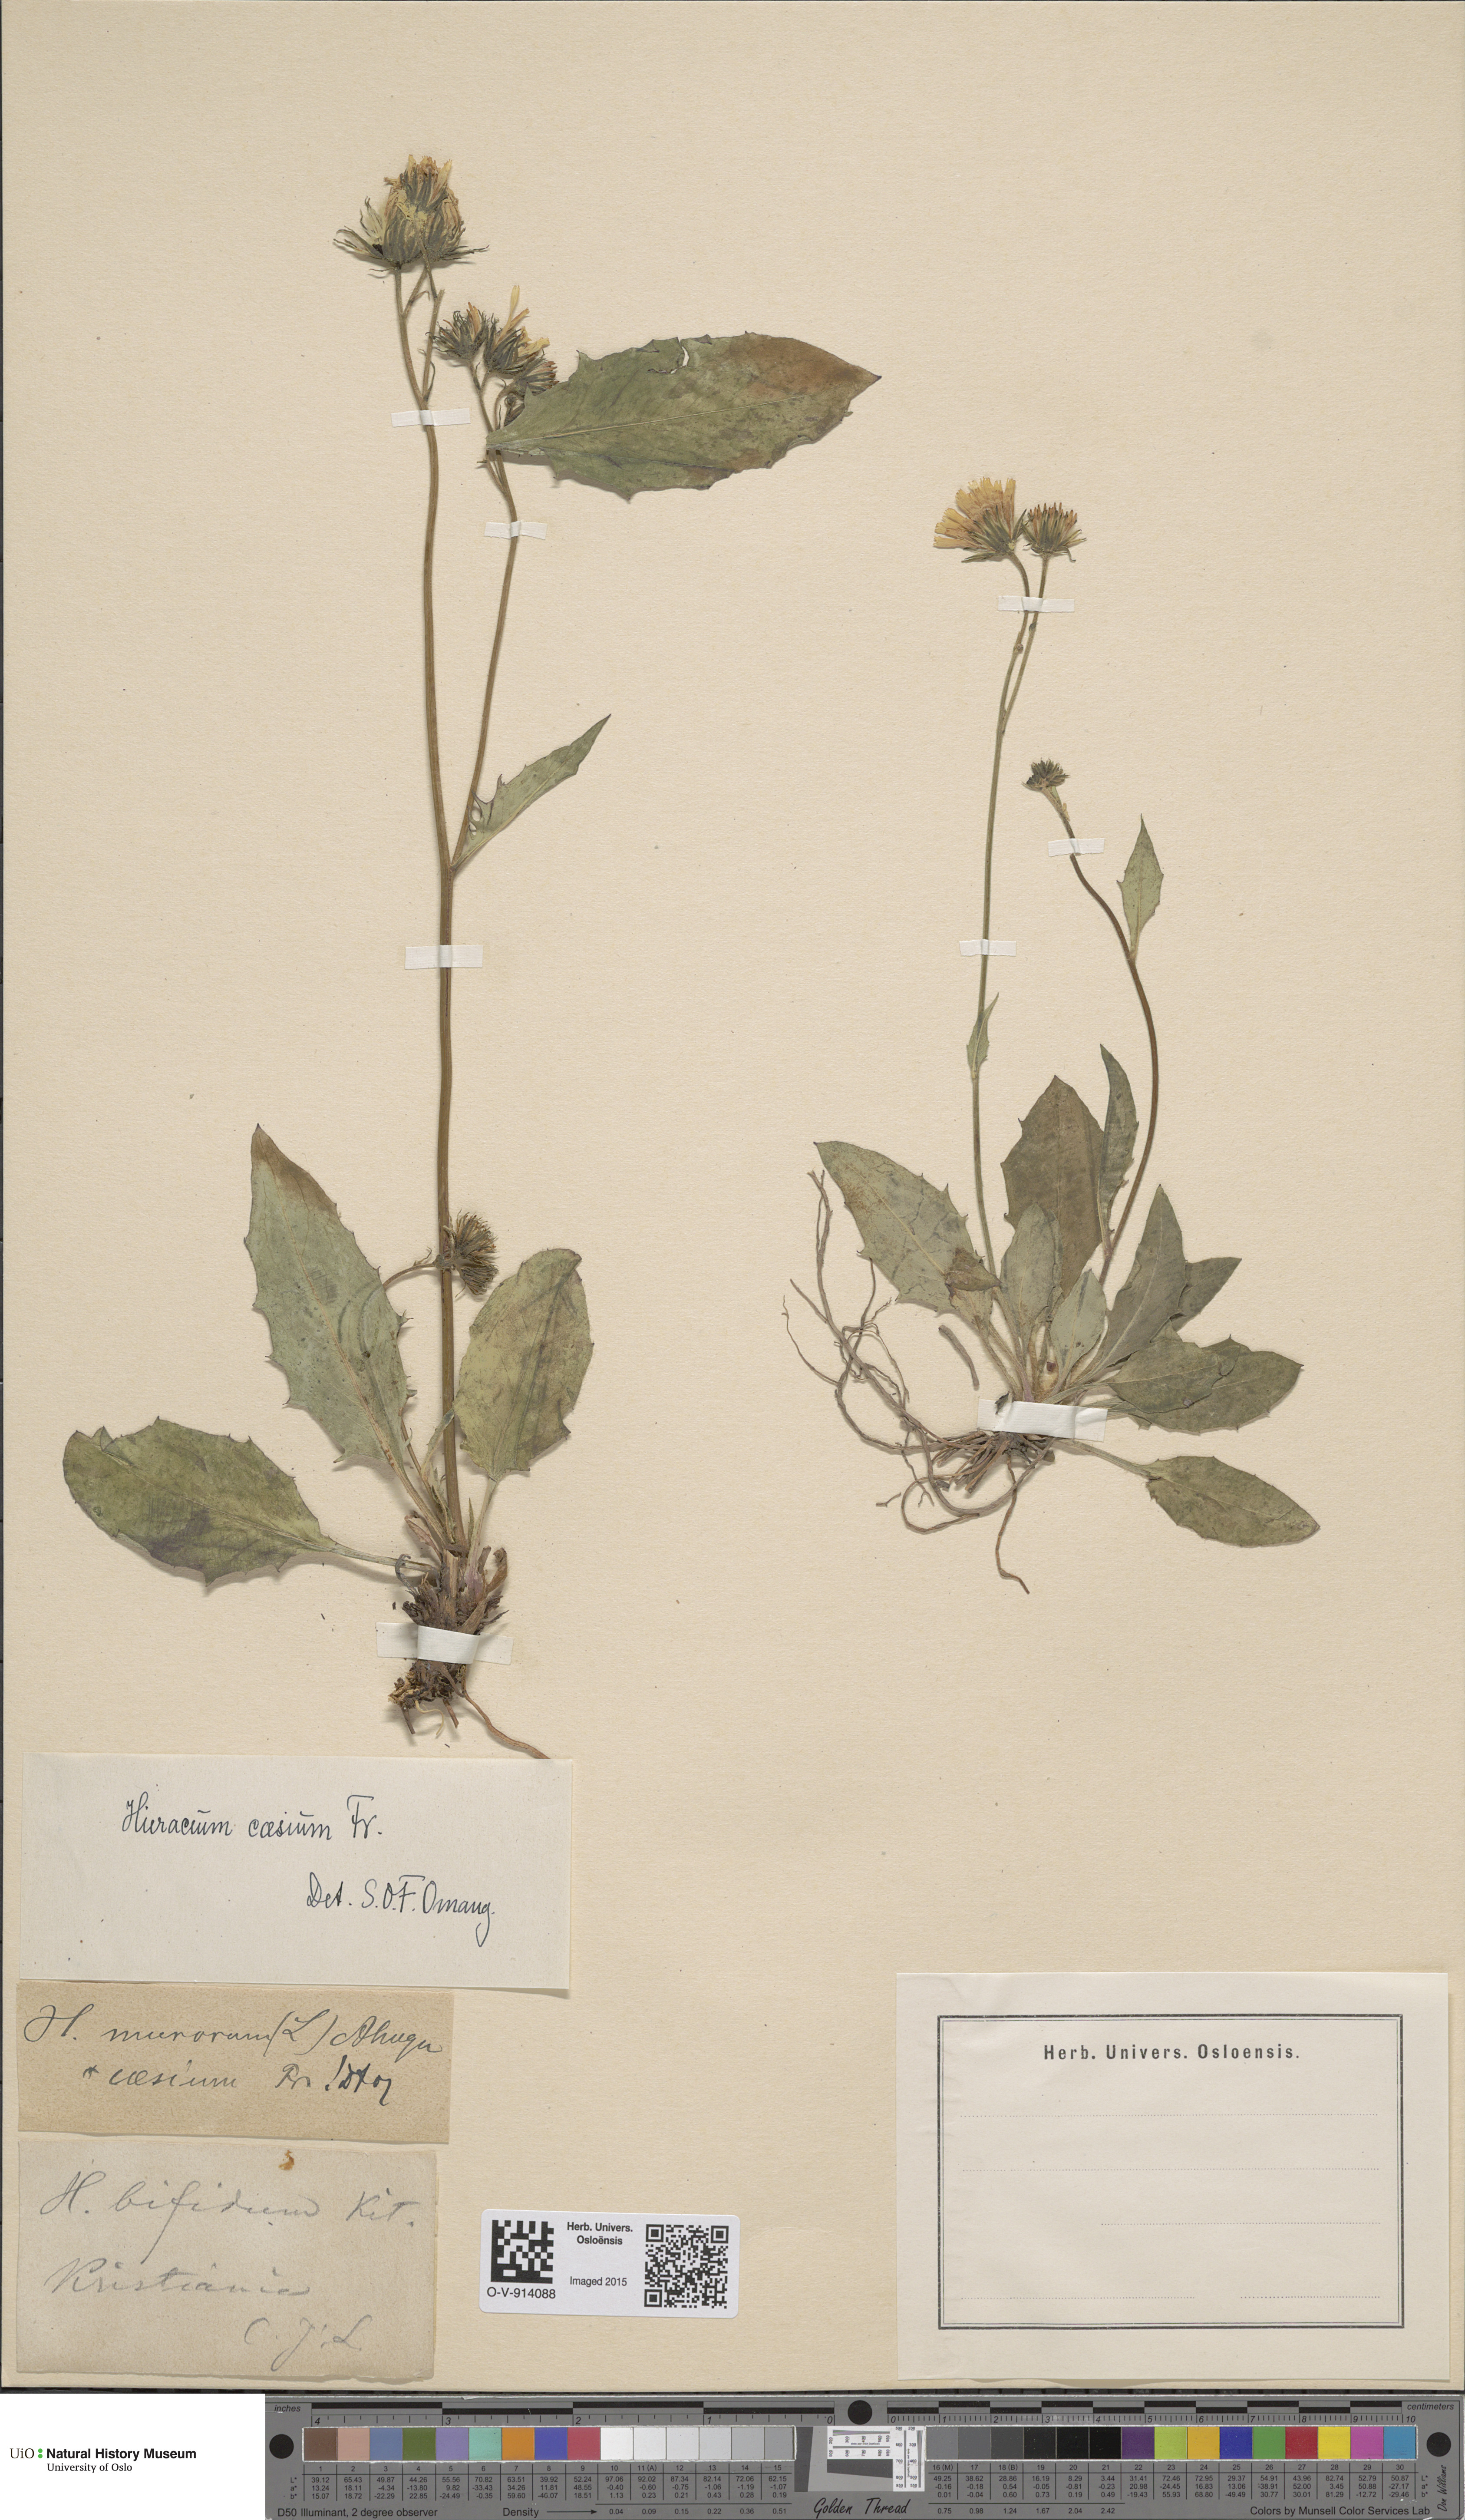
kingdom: Plantae
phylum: Tracheophyta
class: Magnoliopsida
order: Asterales
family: Asteraceae
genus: Hieracium
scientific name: Hieracium caesium
